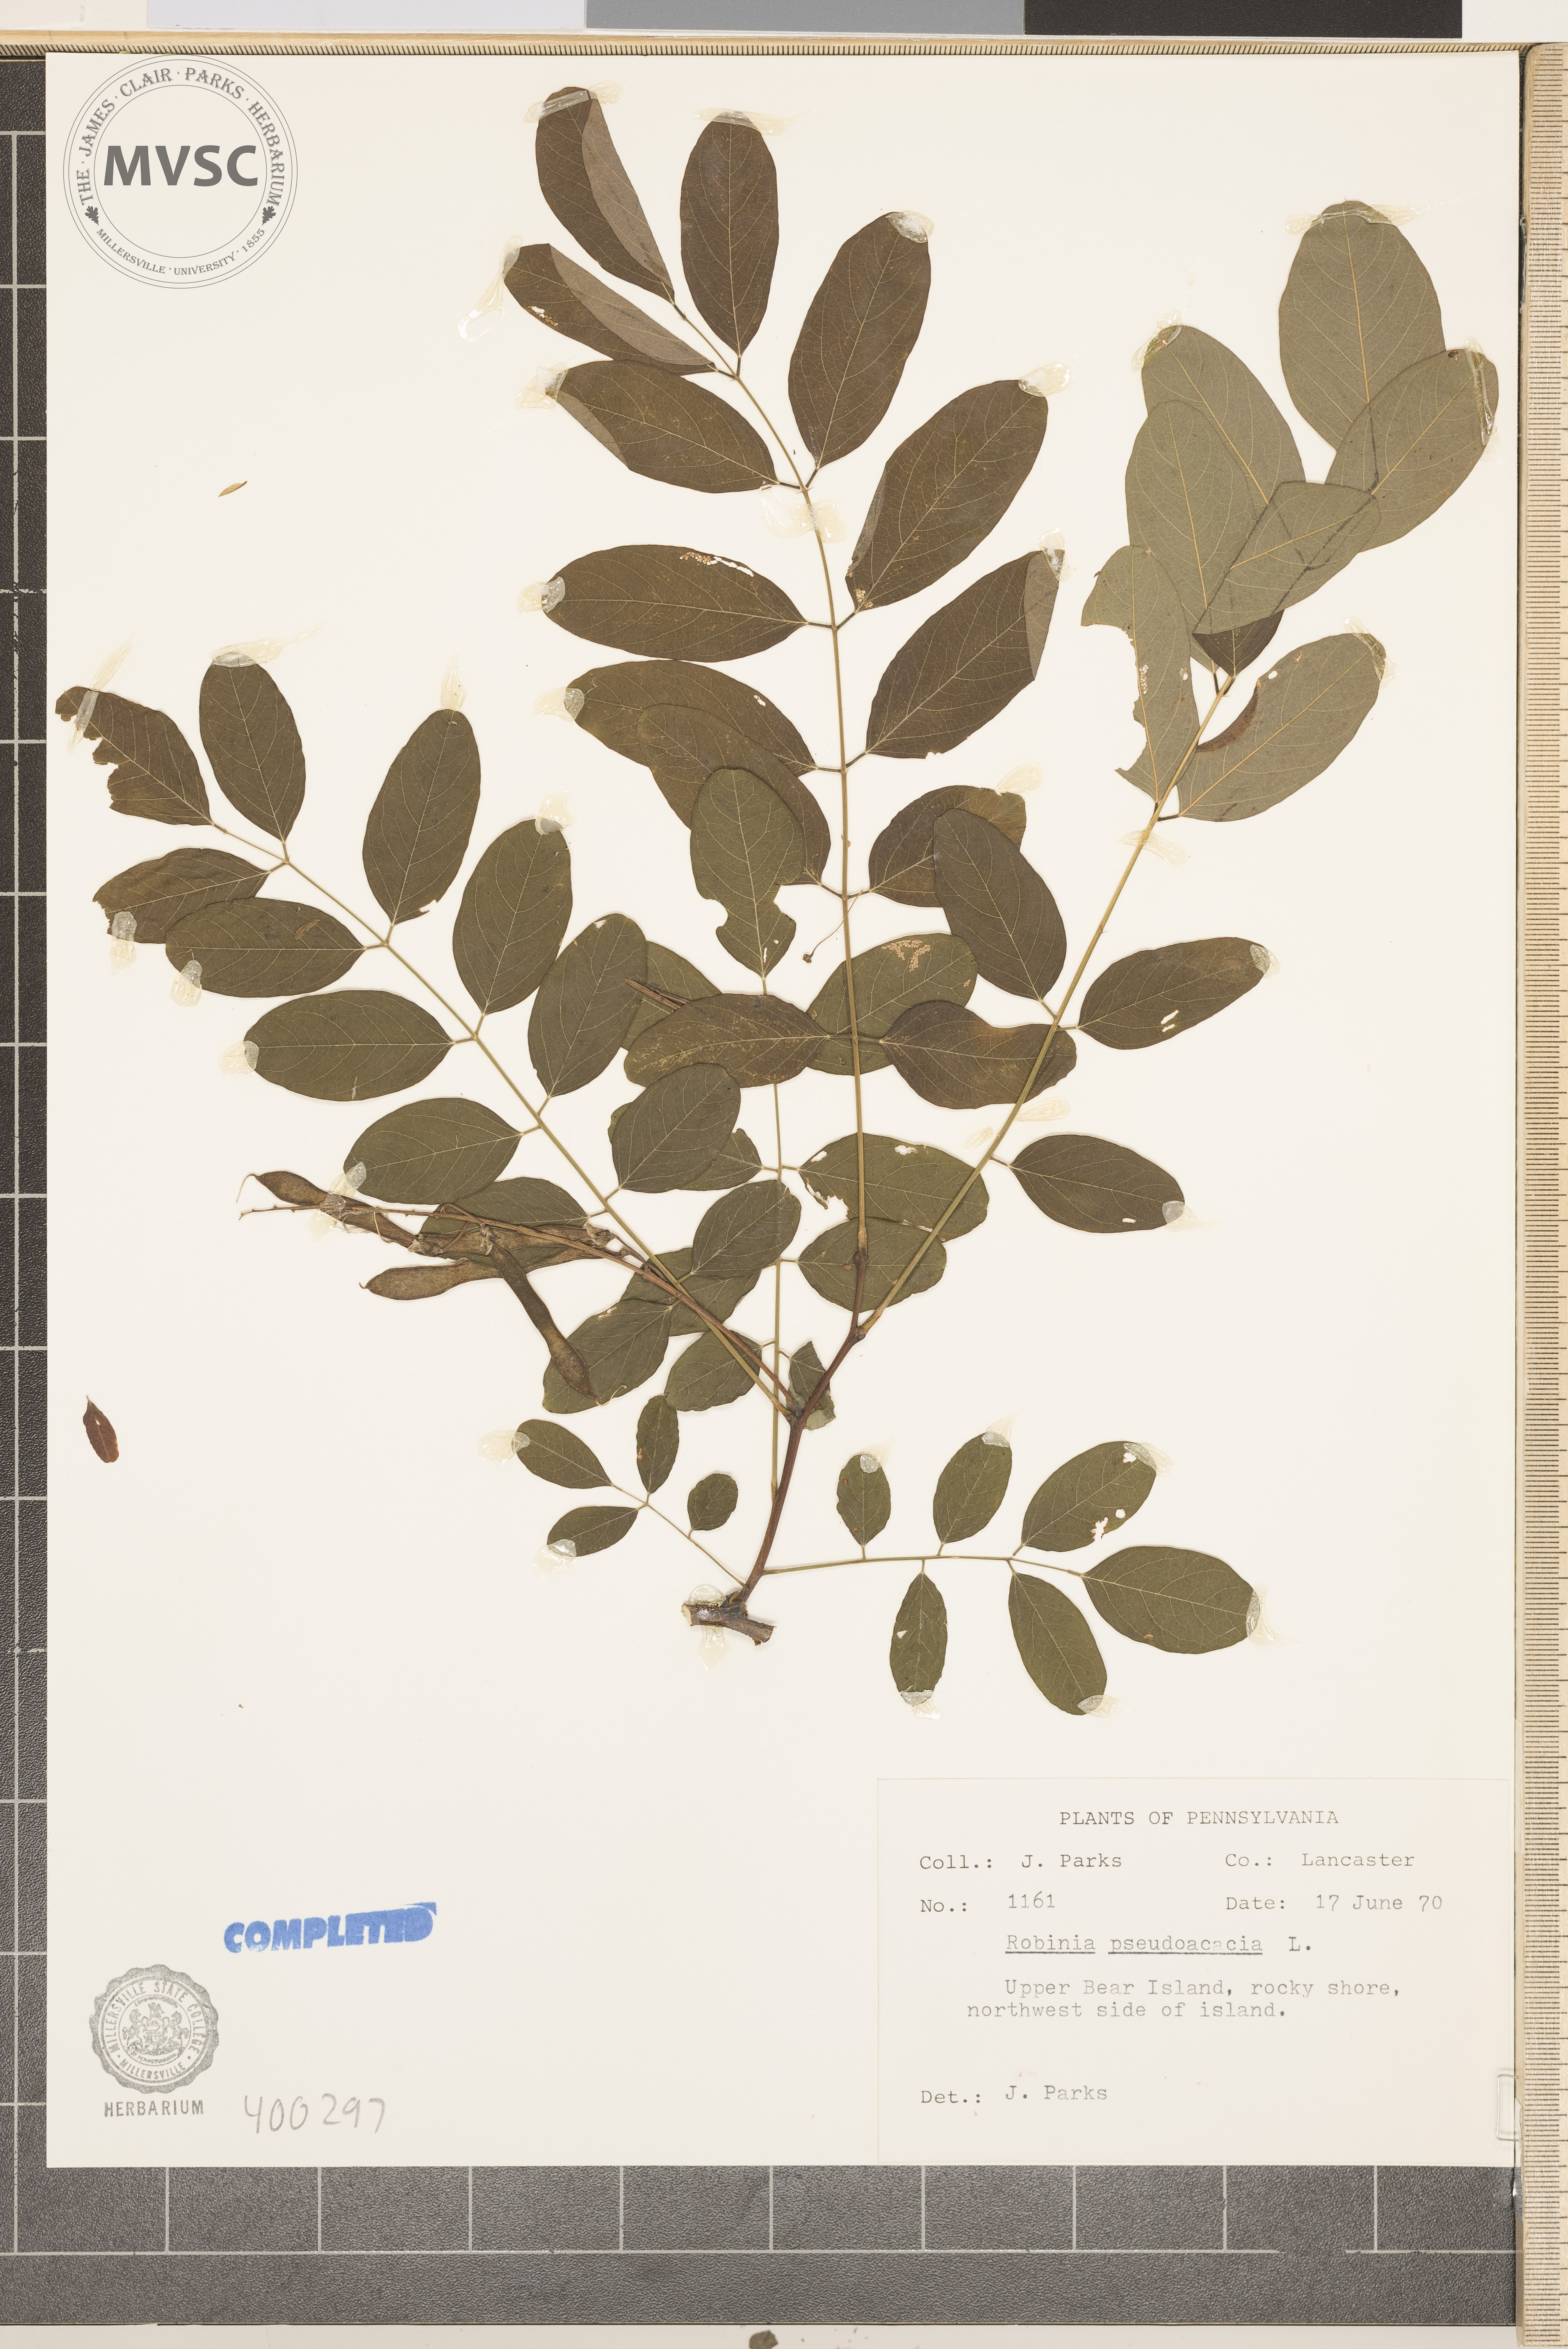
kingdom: Plantae
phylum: Tracheophyta
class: Magnoliopsida
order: Fabales
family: Fabaceae
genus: Robinia
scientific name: Robinia pseudoacacia
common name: black locust
